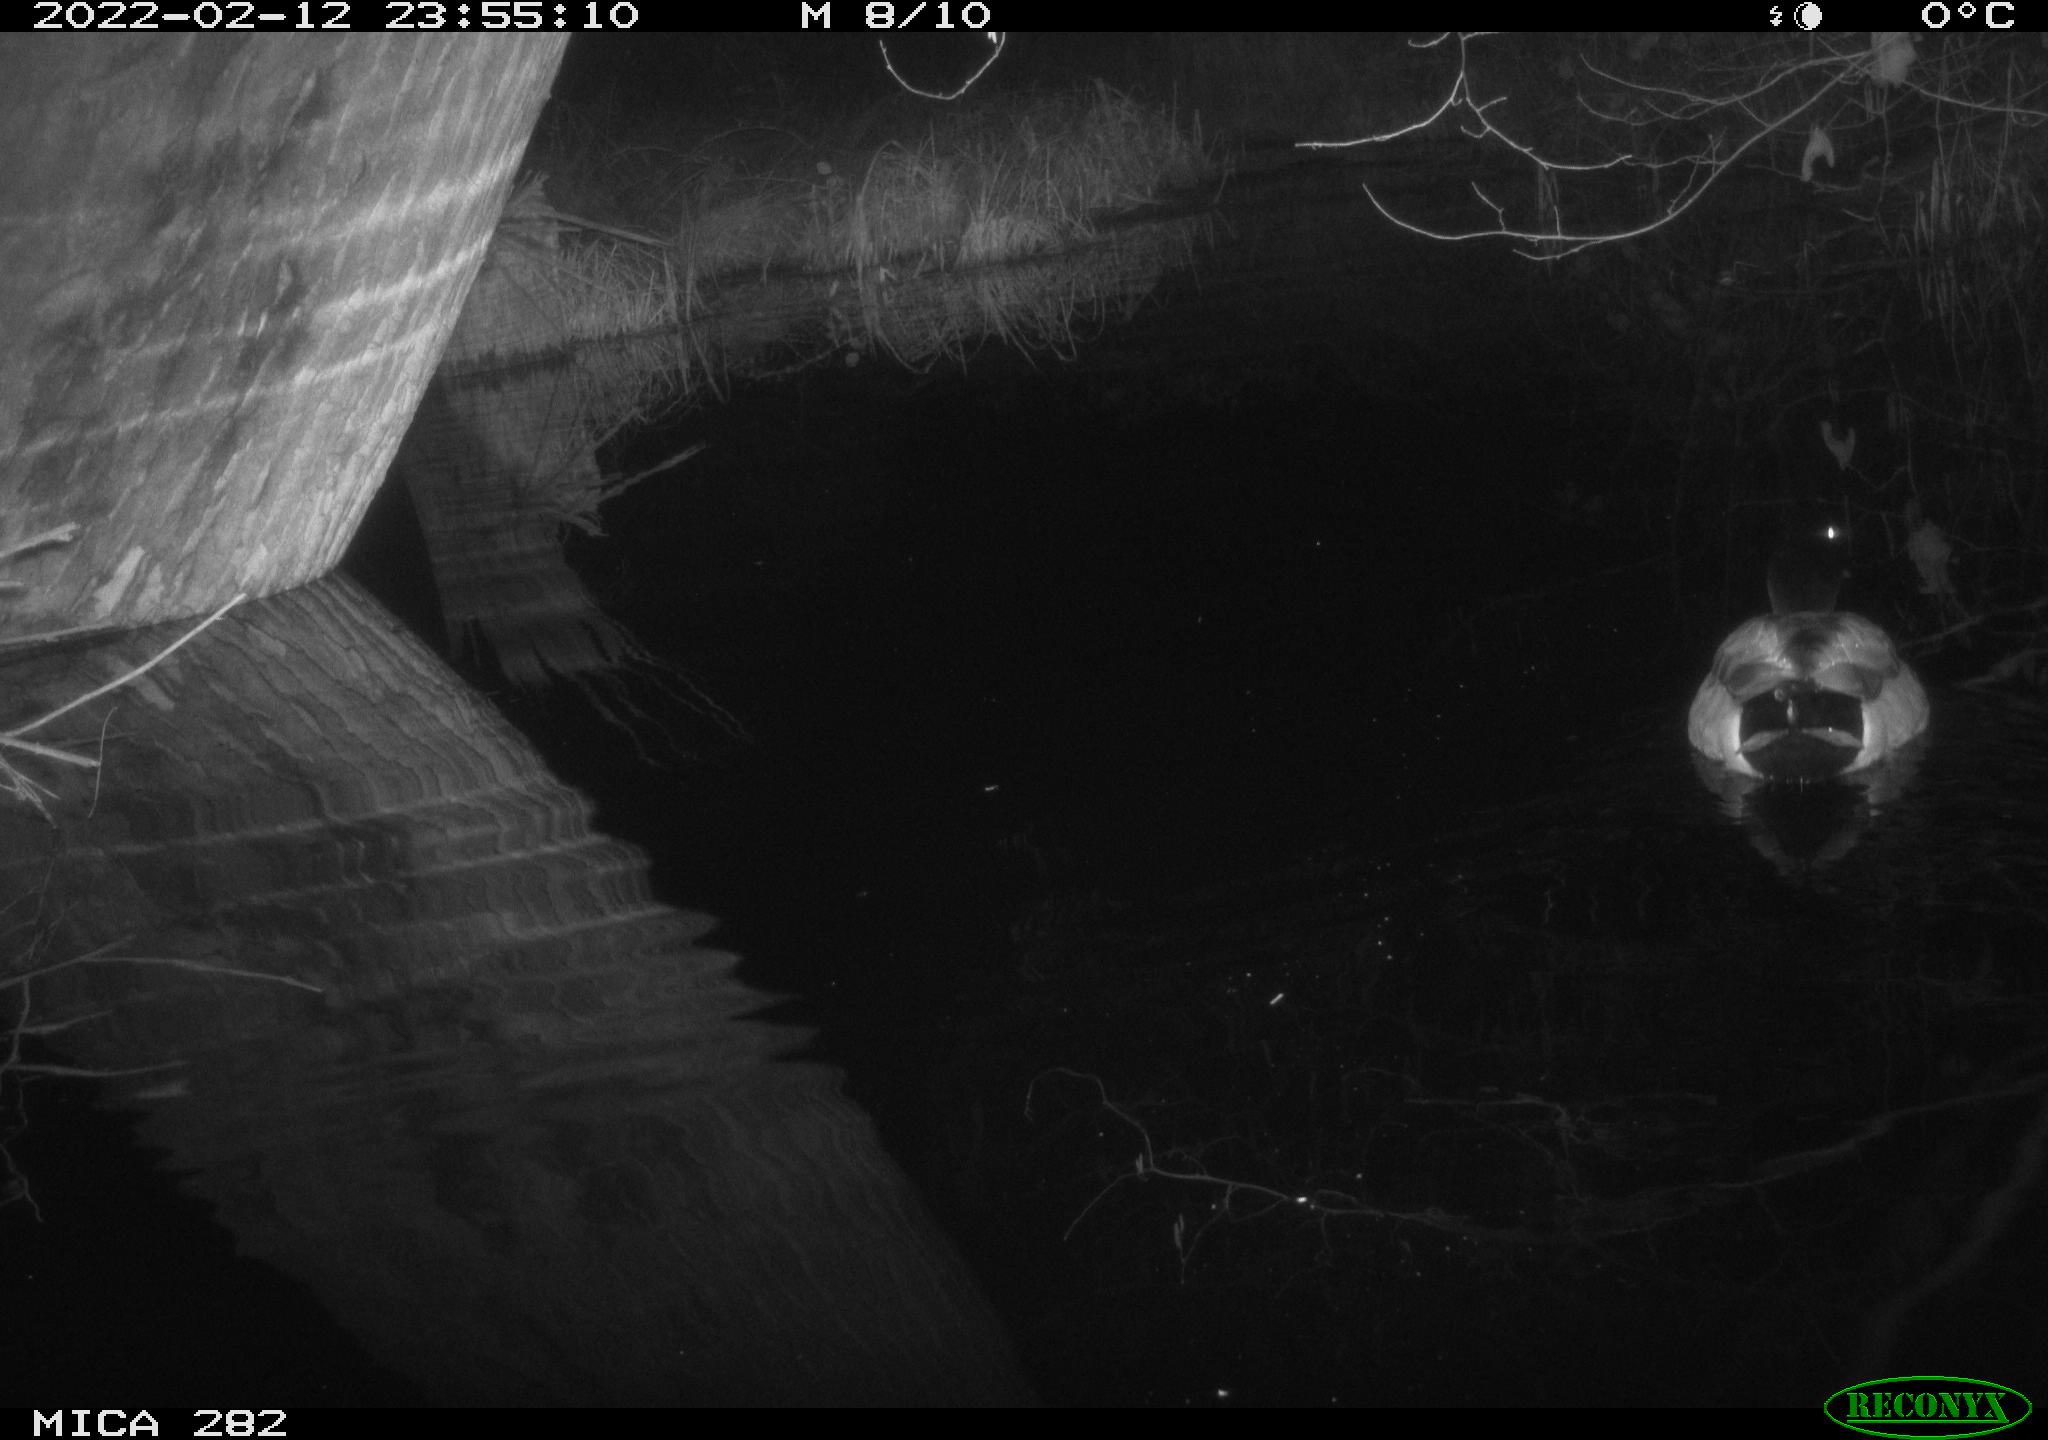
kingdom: Animalia
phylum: Chordata
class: Aves
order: Anseriformes
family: Anatidae
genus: Anas
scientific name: Anas platyrhynchos
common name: Mallard
